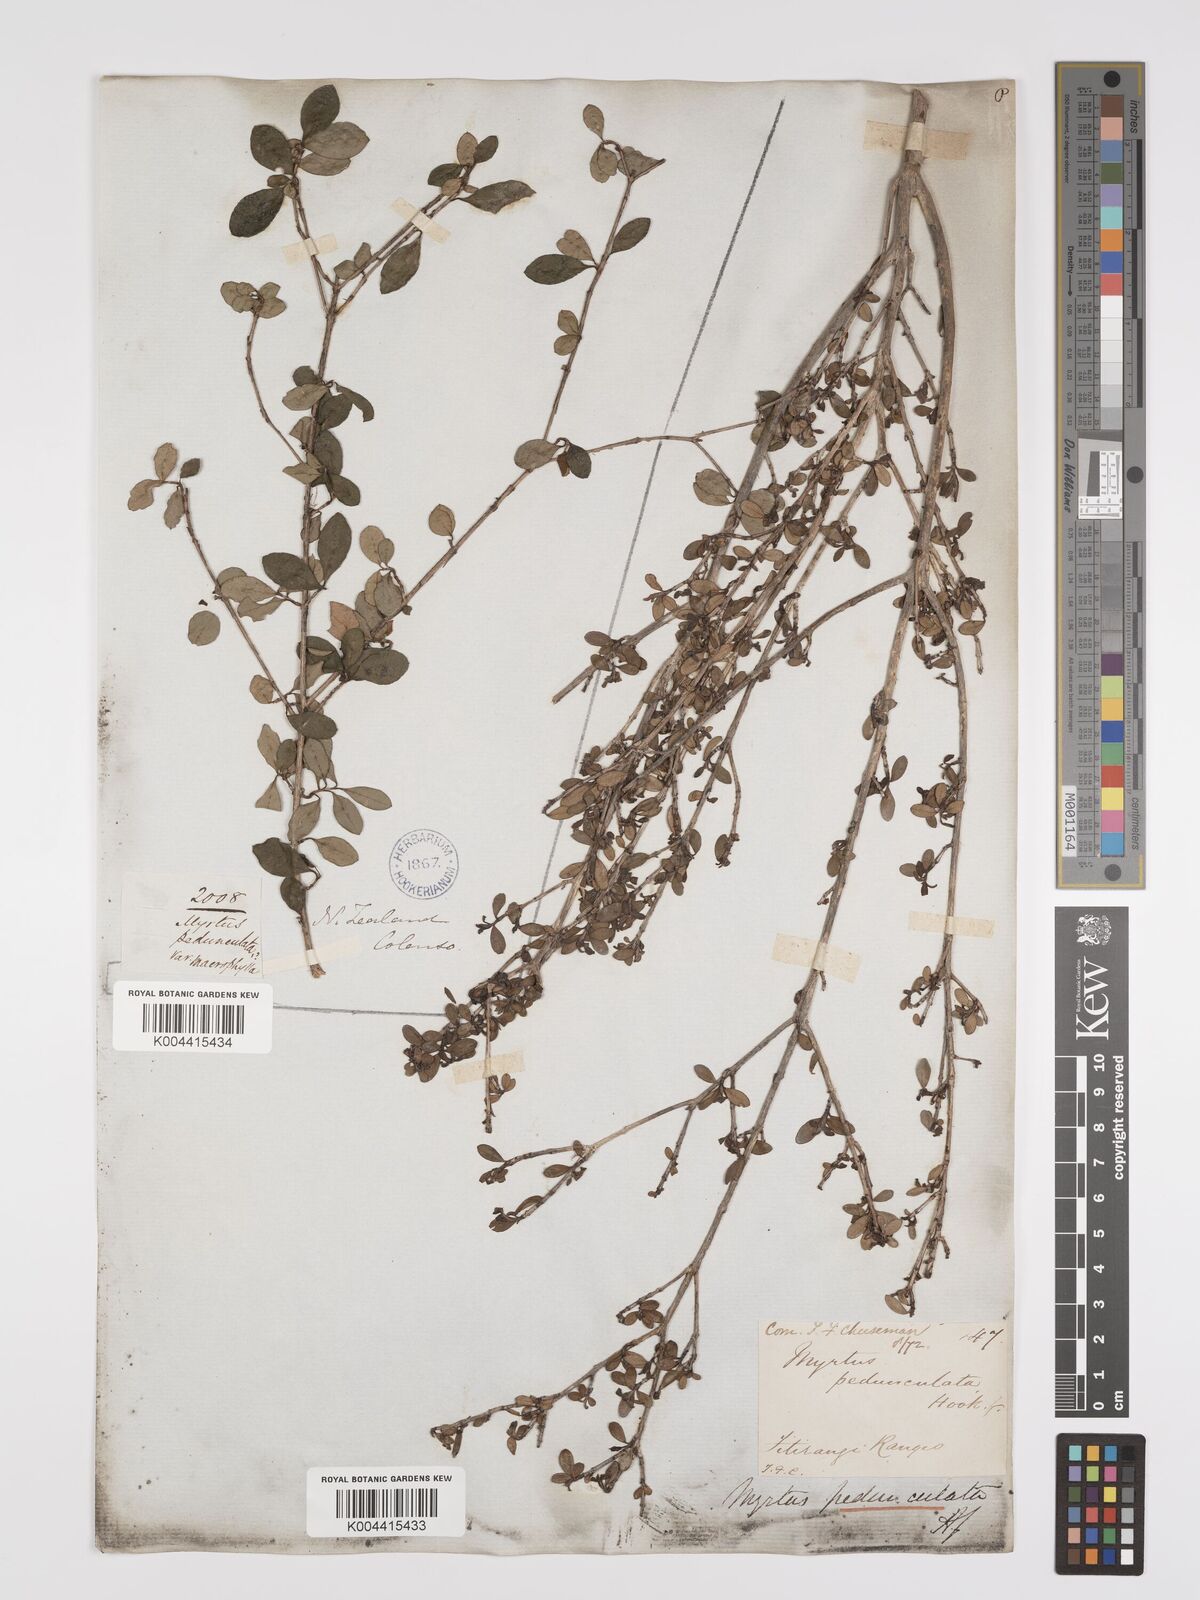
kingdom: Plantae
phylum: Tracheophyta
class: Magnoliopsida
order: Myrtales
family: Myrtaceae
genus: Neomyrtus
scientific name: Neomyrtus pedunculata
